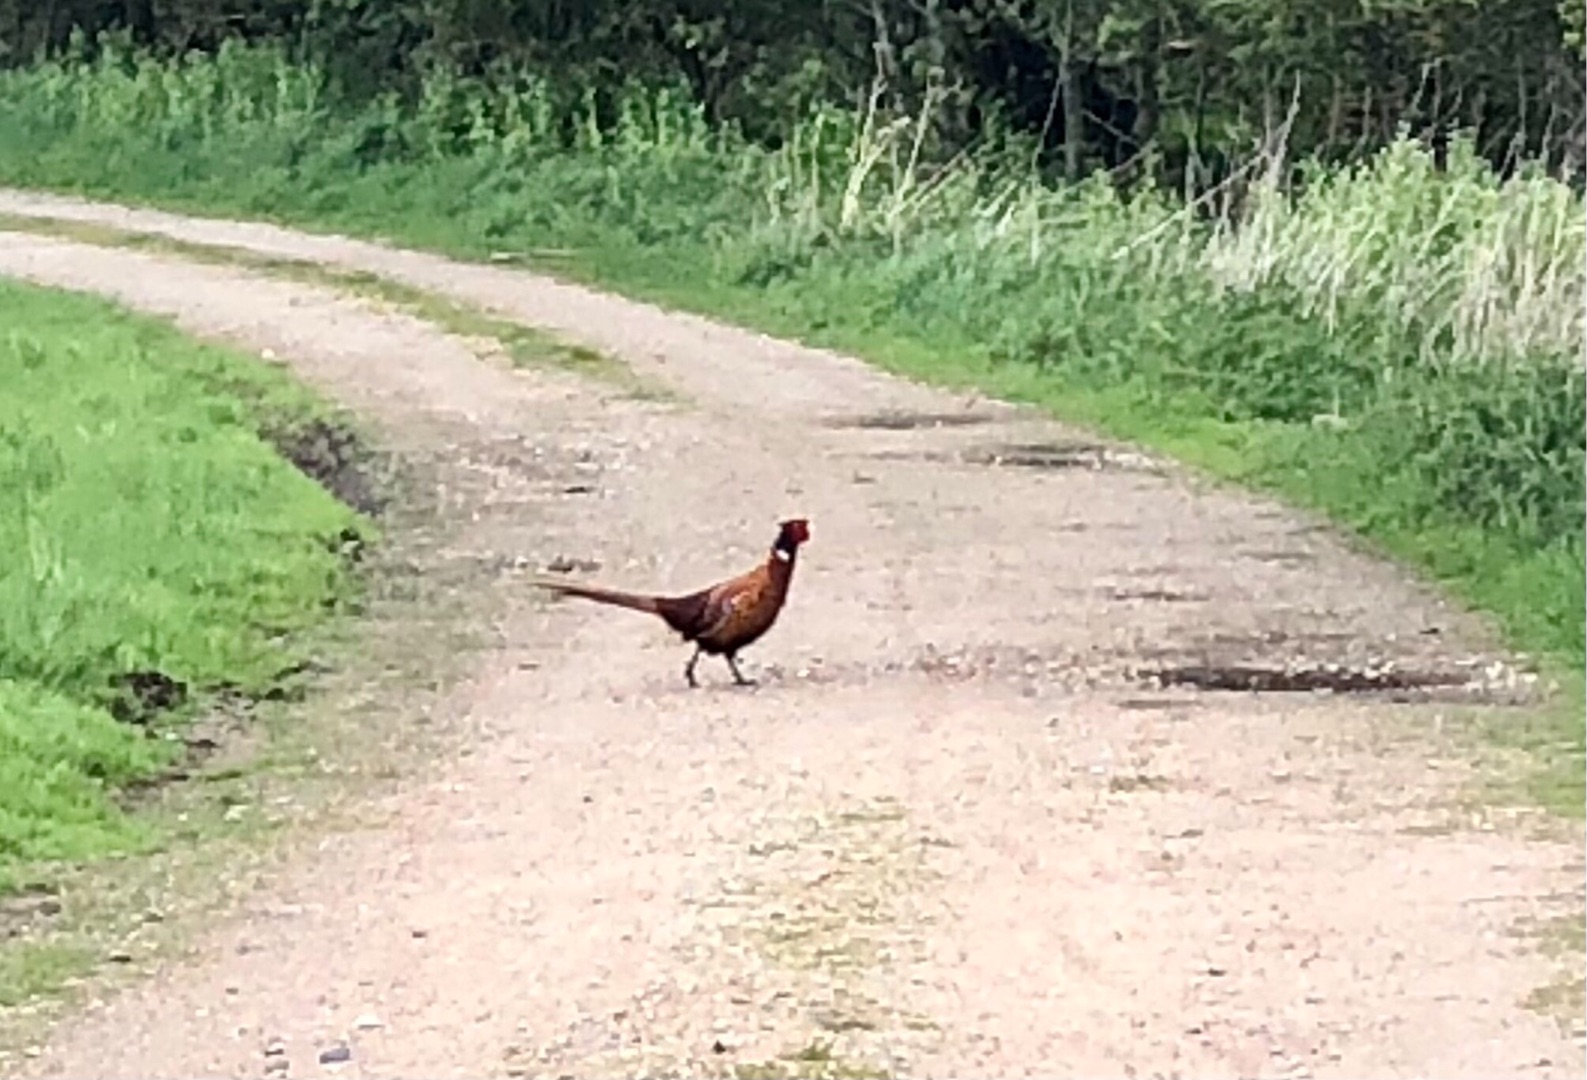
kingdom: Animalia
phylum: Chordata
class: Aves
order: Galliformes
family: Phasianidae
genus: Phasianus
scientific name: Phasianus colchicus
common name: Fasan
